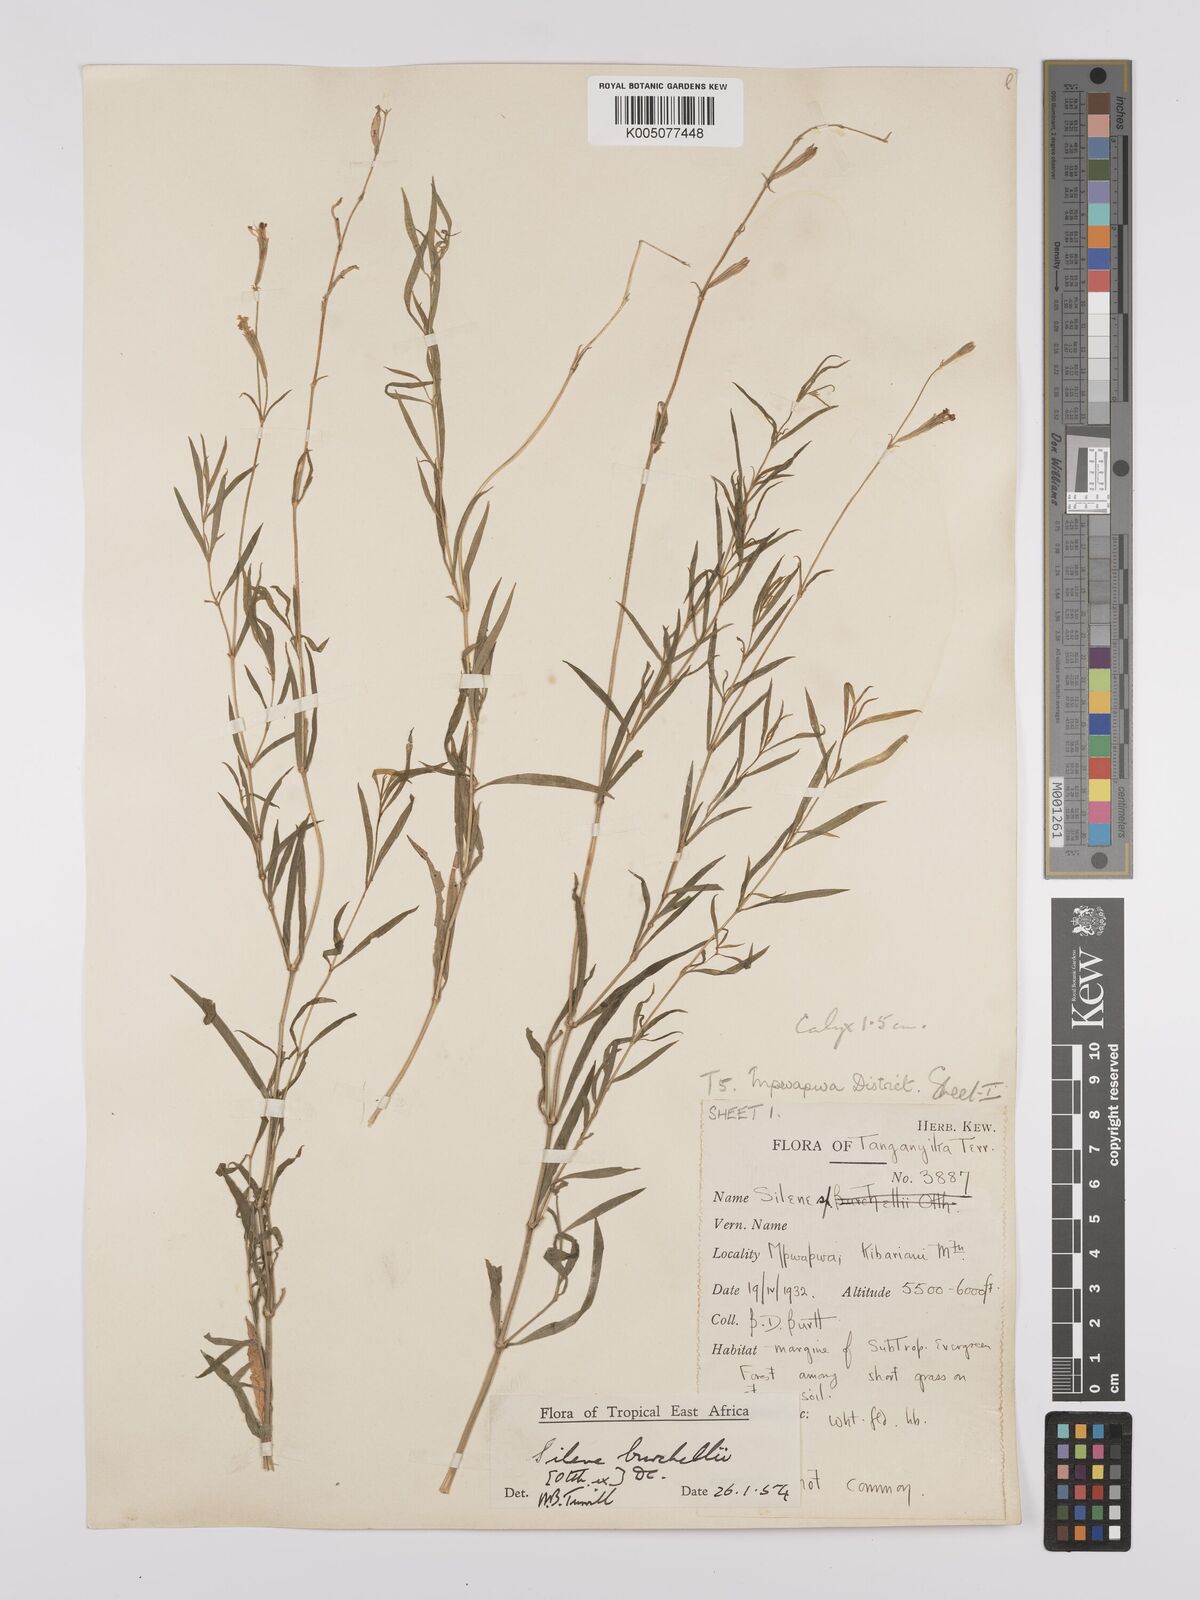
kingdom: Plantae
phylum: Tracheophyta
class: Magnoliopsida
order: Caryophyllales
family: Caryophyllaceae
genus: Silene
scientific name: Silene burchellii
